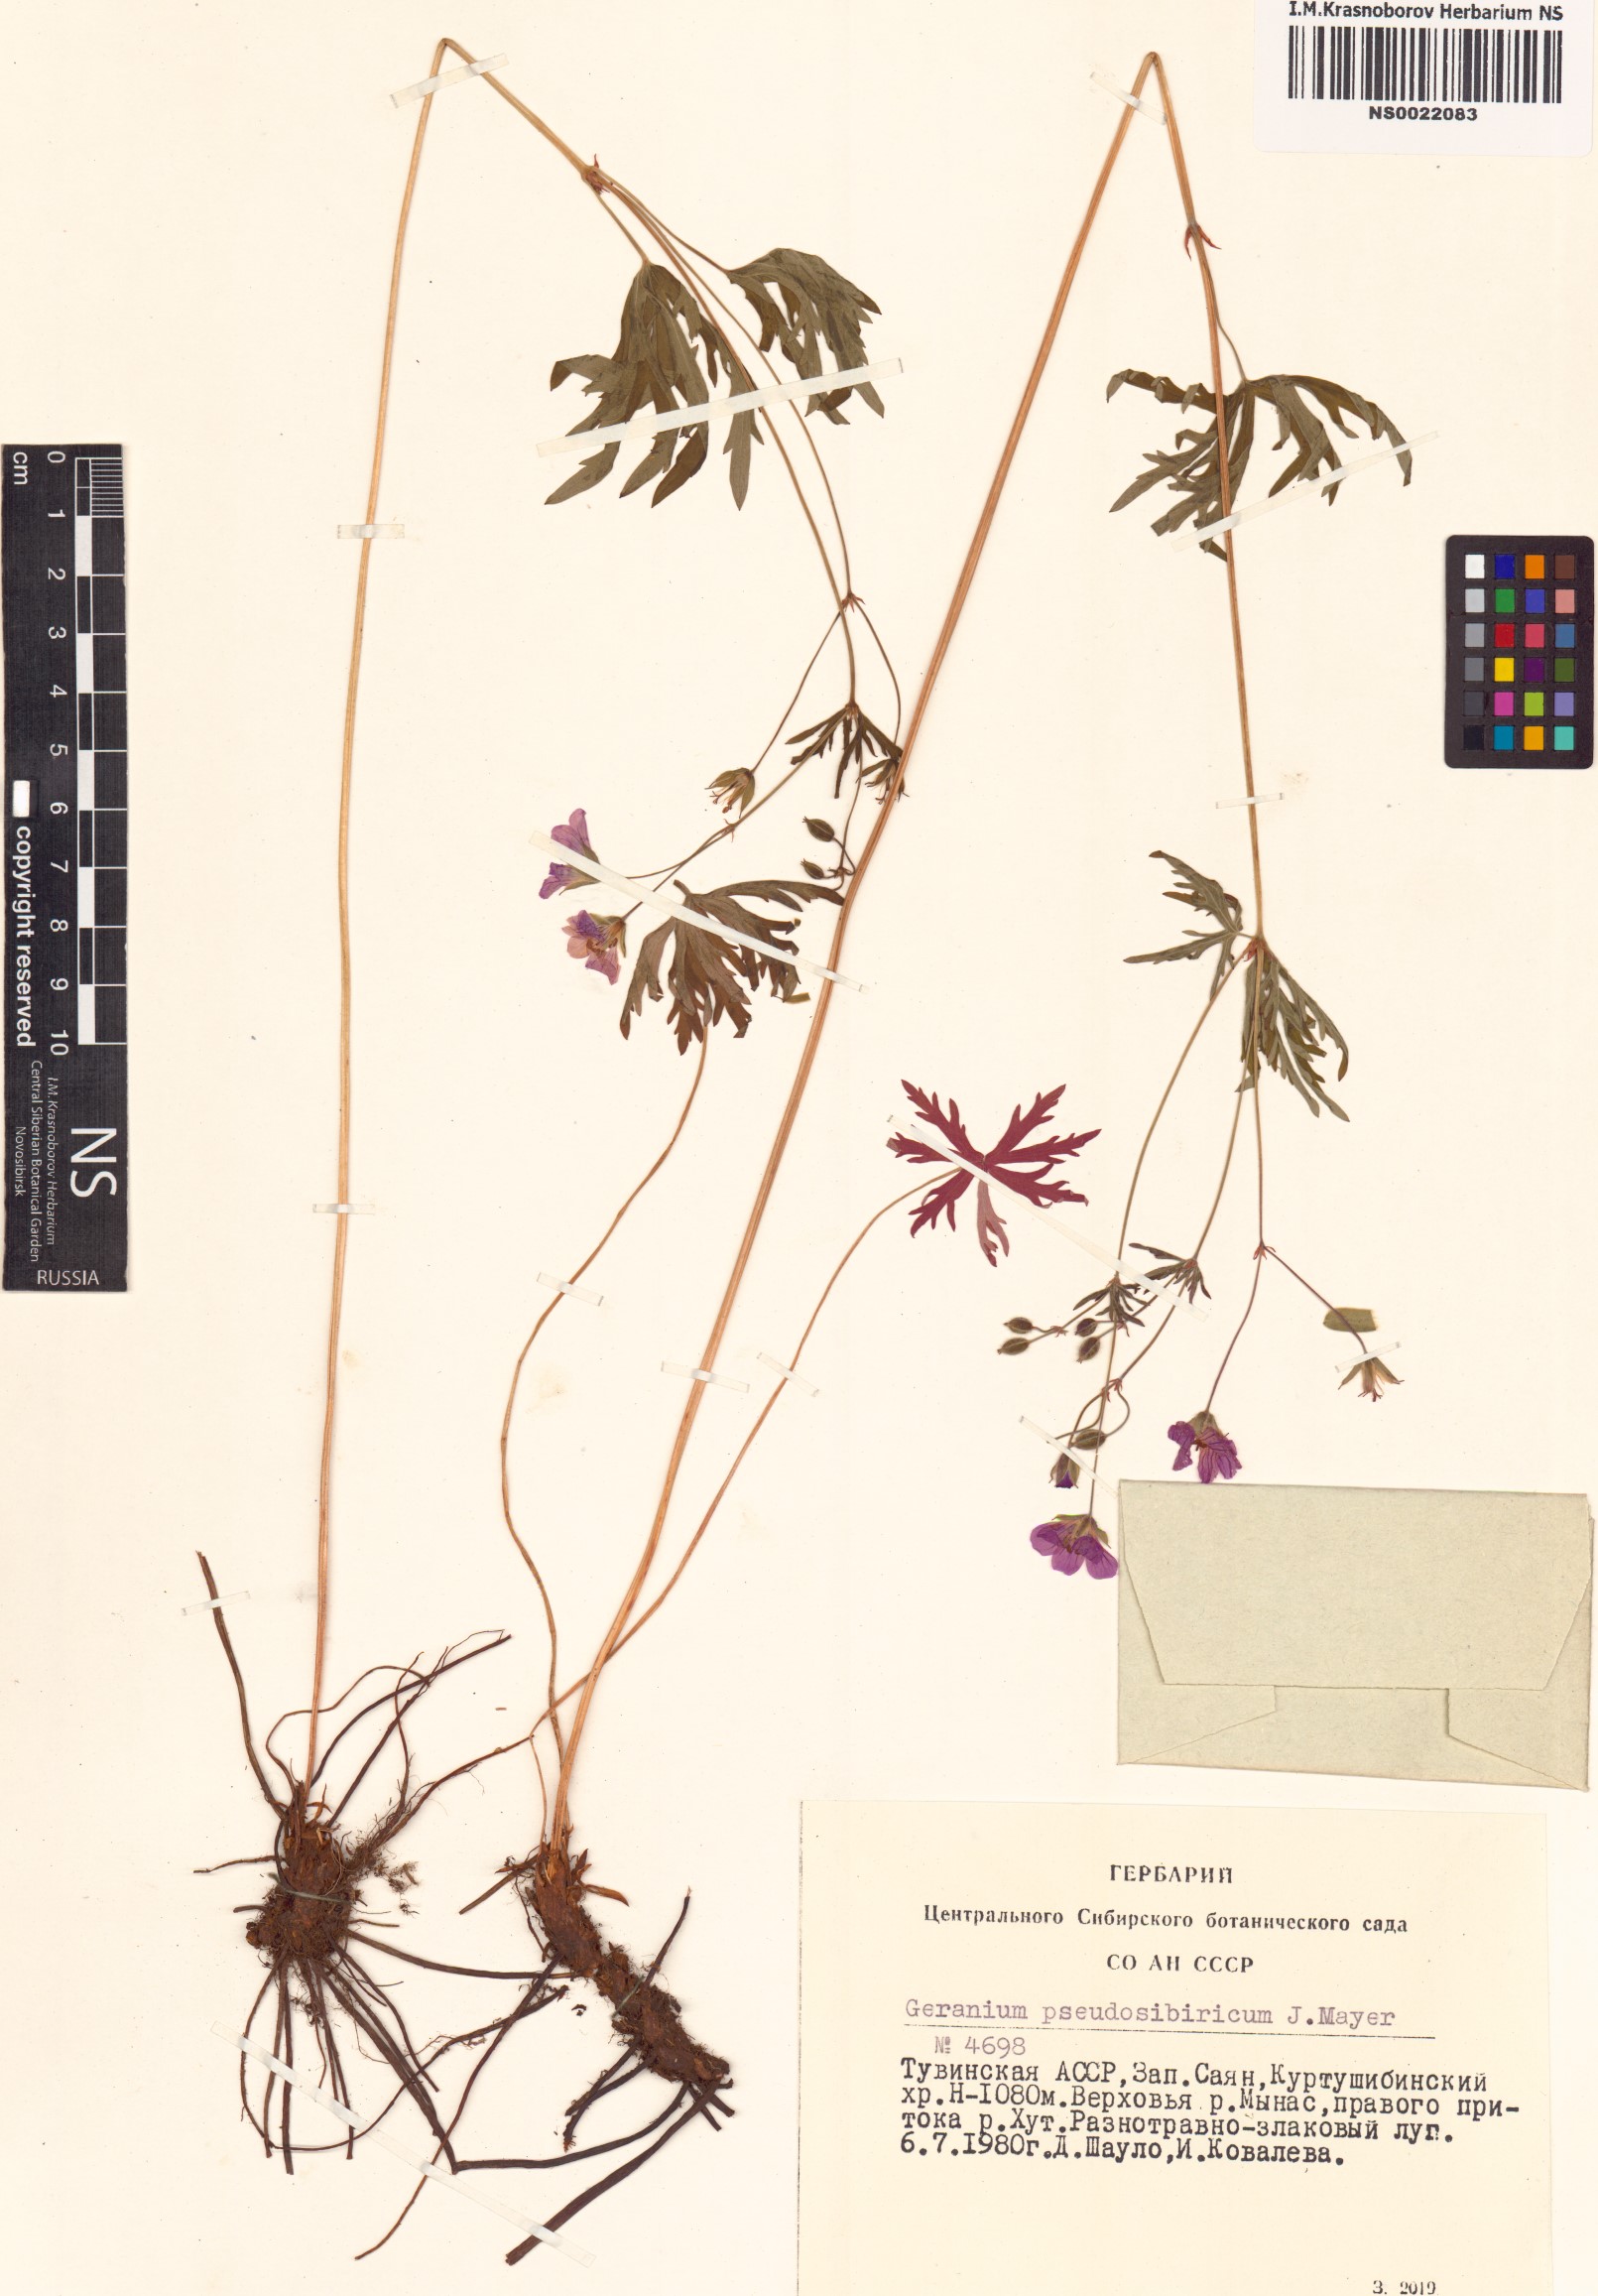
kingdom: Plantae
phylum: Tracheophyta
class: Magnoliopsida
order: Geraniales
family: Geraniaceae
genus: Geranium
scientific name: Geranium pseudosibiricum
